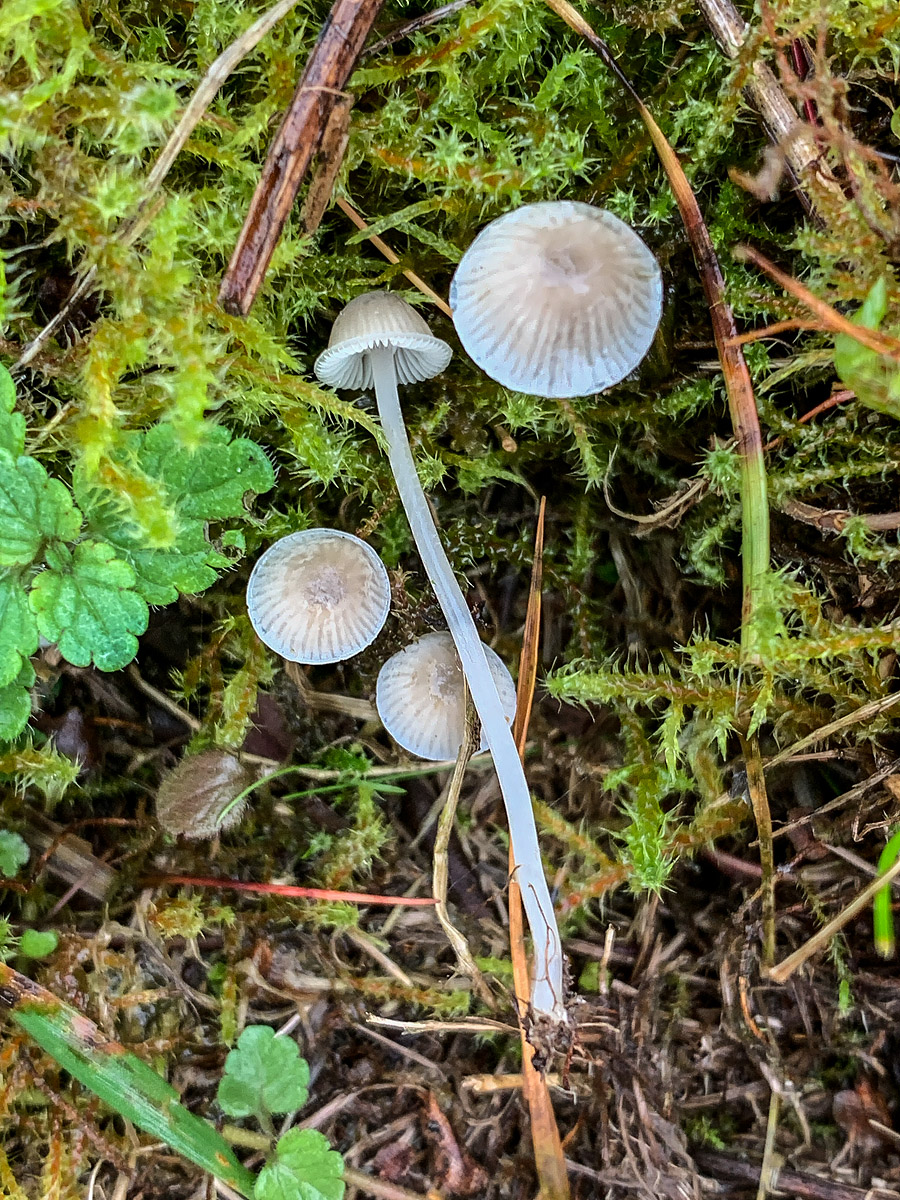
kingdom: Fungi
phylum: Basidiomycota
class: Agaricomycetes
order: Agaricales
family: Mycenaceae
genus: Mycena
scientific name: Mycena cinerella
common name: mel-huesvamp
